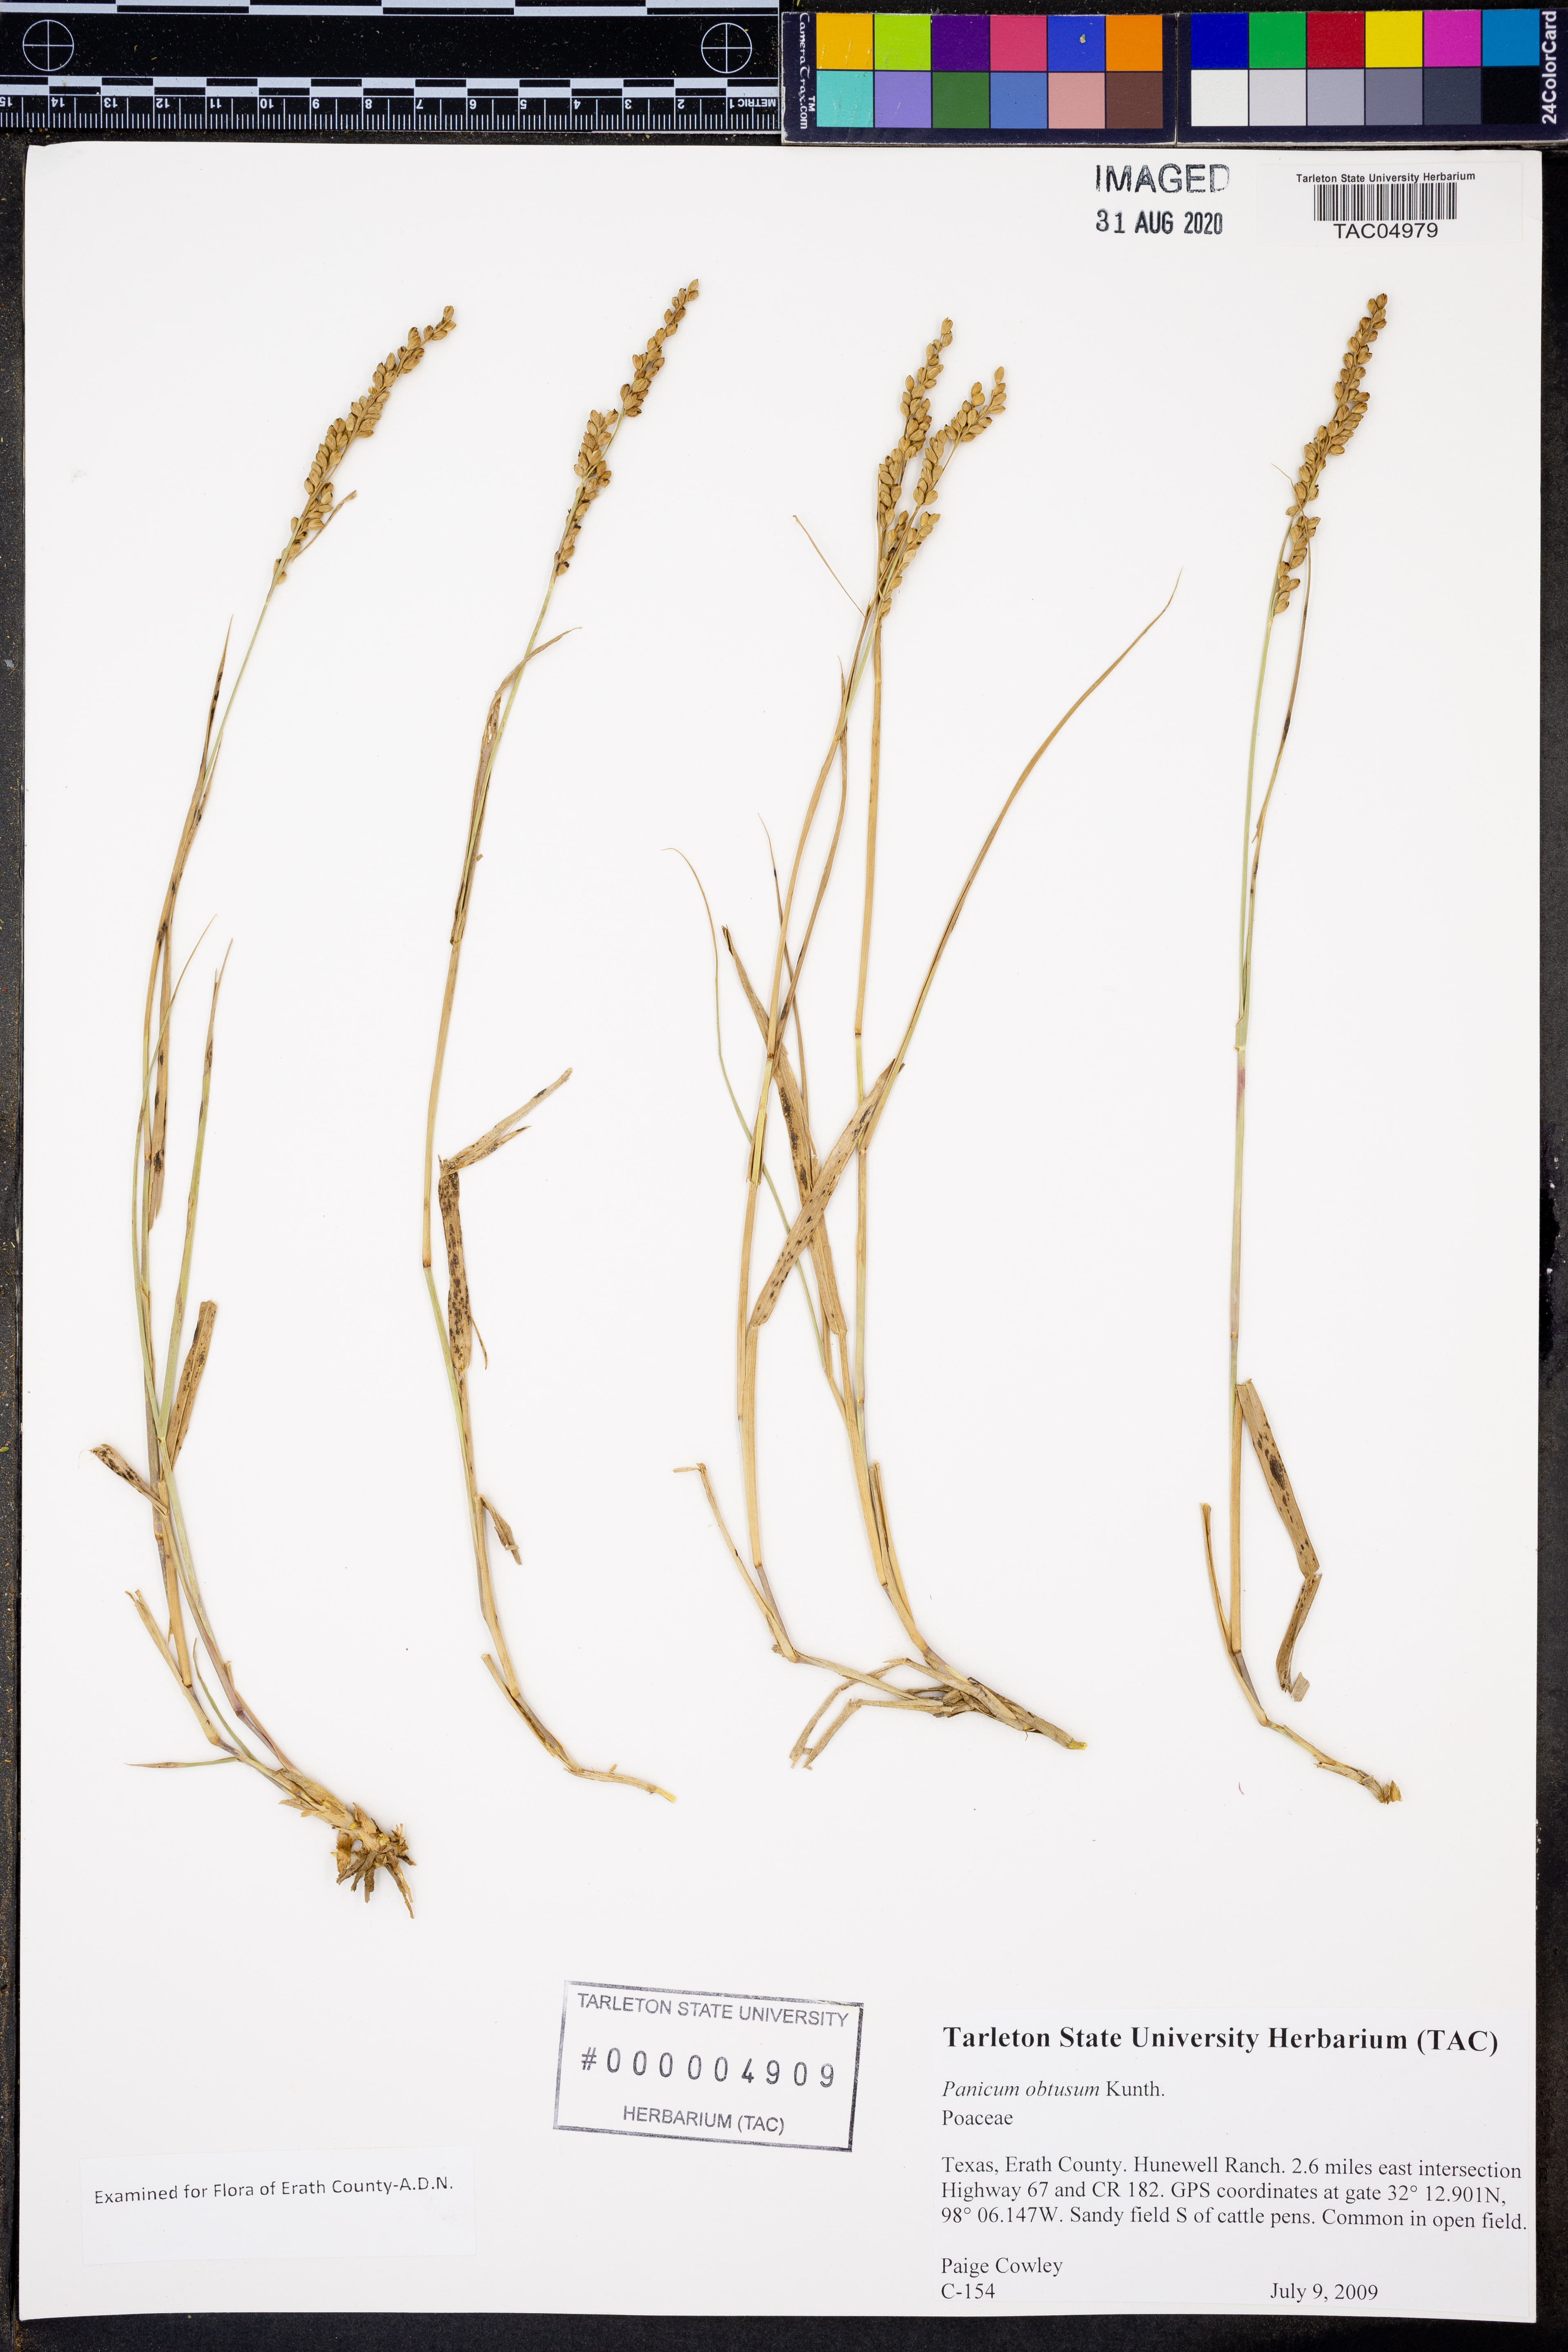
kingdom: Plantae
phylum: Tracheophyta
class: Liliopsida
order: Poales
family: Poaceae
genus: Hopia
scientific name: Hopia obtusa
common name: Vine-mesquite
